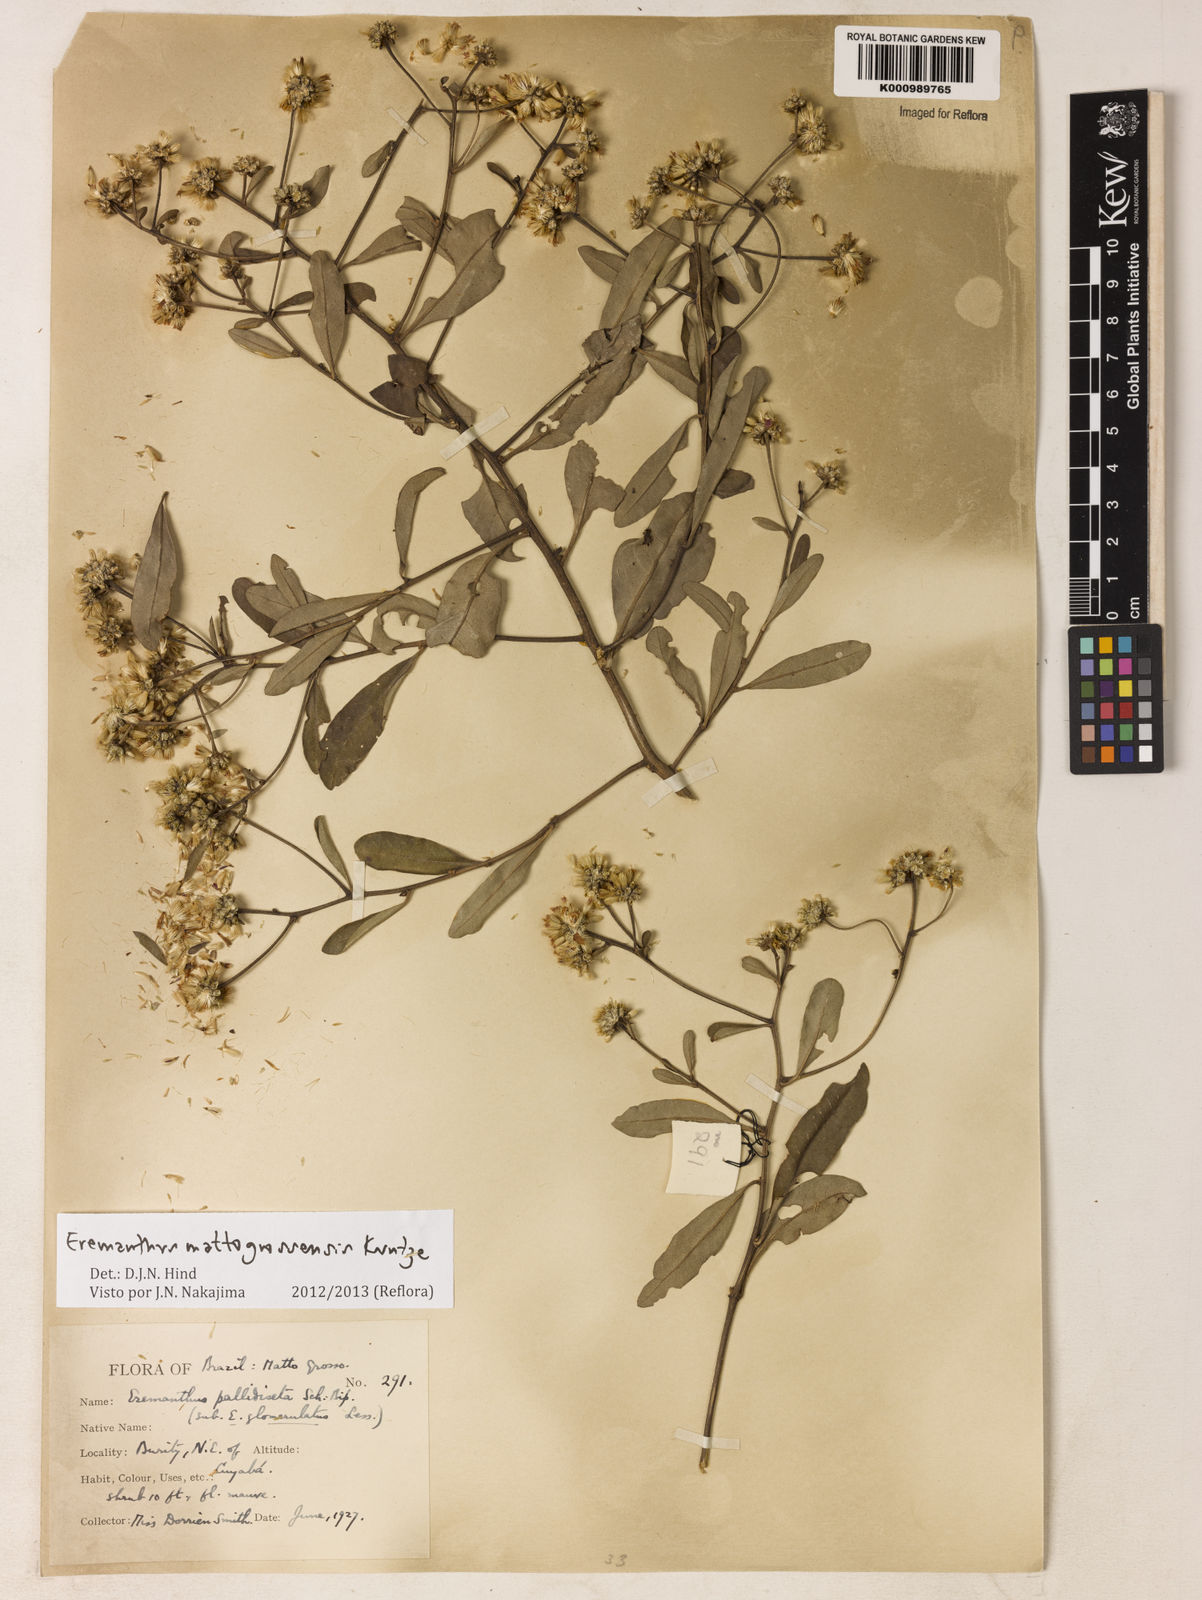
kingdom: Plantae
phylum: Tracheophyta
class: Magnoliopsida
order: Asterales
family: Asteraceae
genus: Eremanthus
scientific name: Eremanthus mattogrossensis
